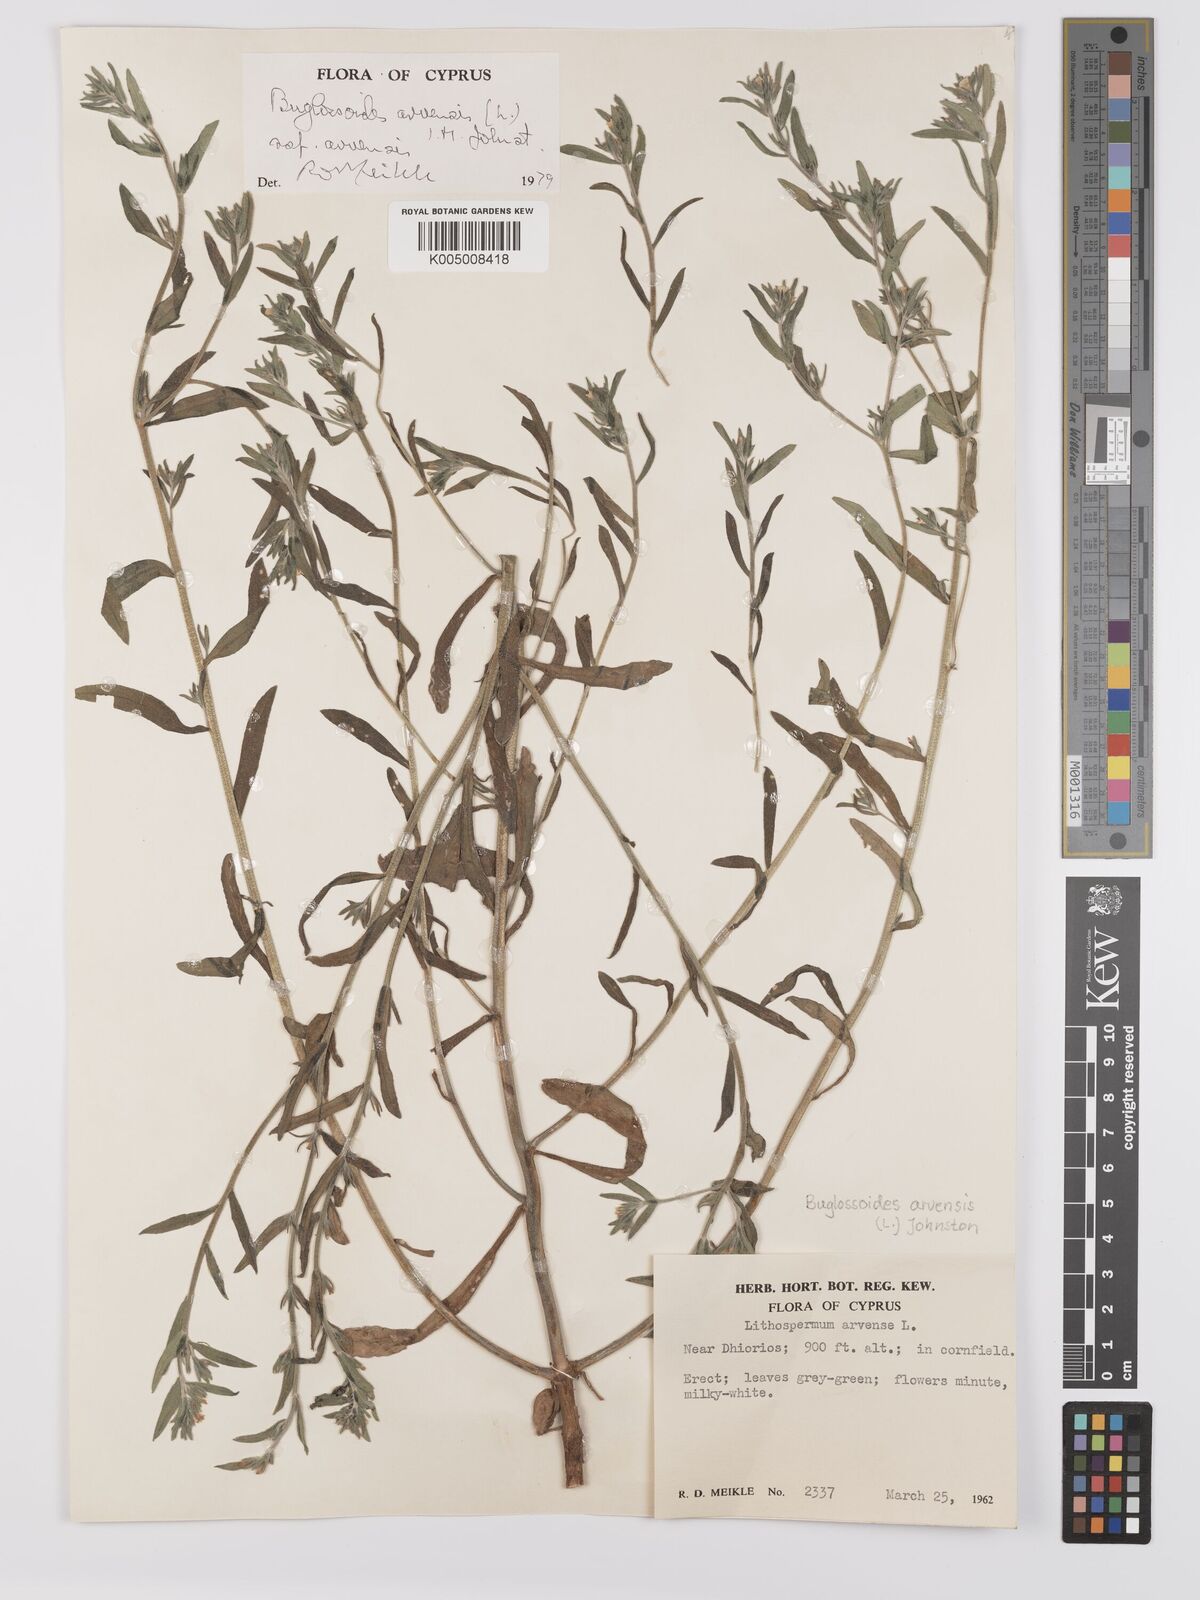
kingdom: Plantae
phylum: Tracheophyta
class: Magnoliopsida
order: Boraginales
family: Boraginaceae
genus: Buglossoides
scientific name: Buglossoides arvensis
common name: Corn gromwell
